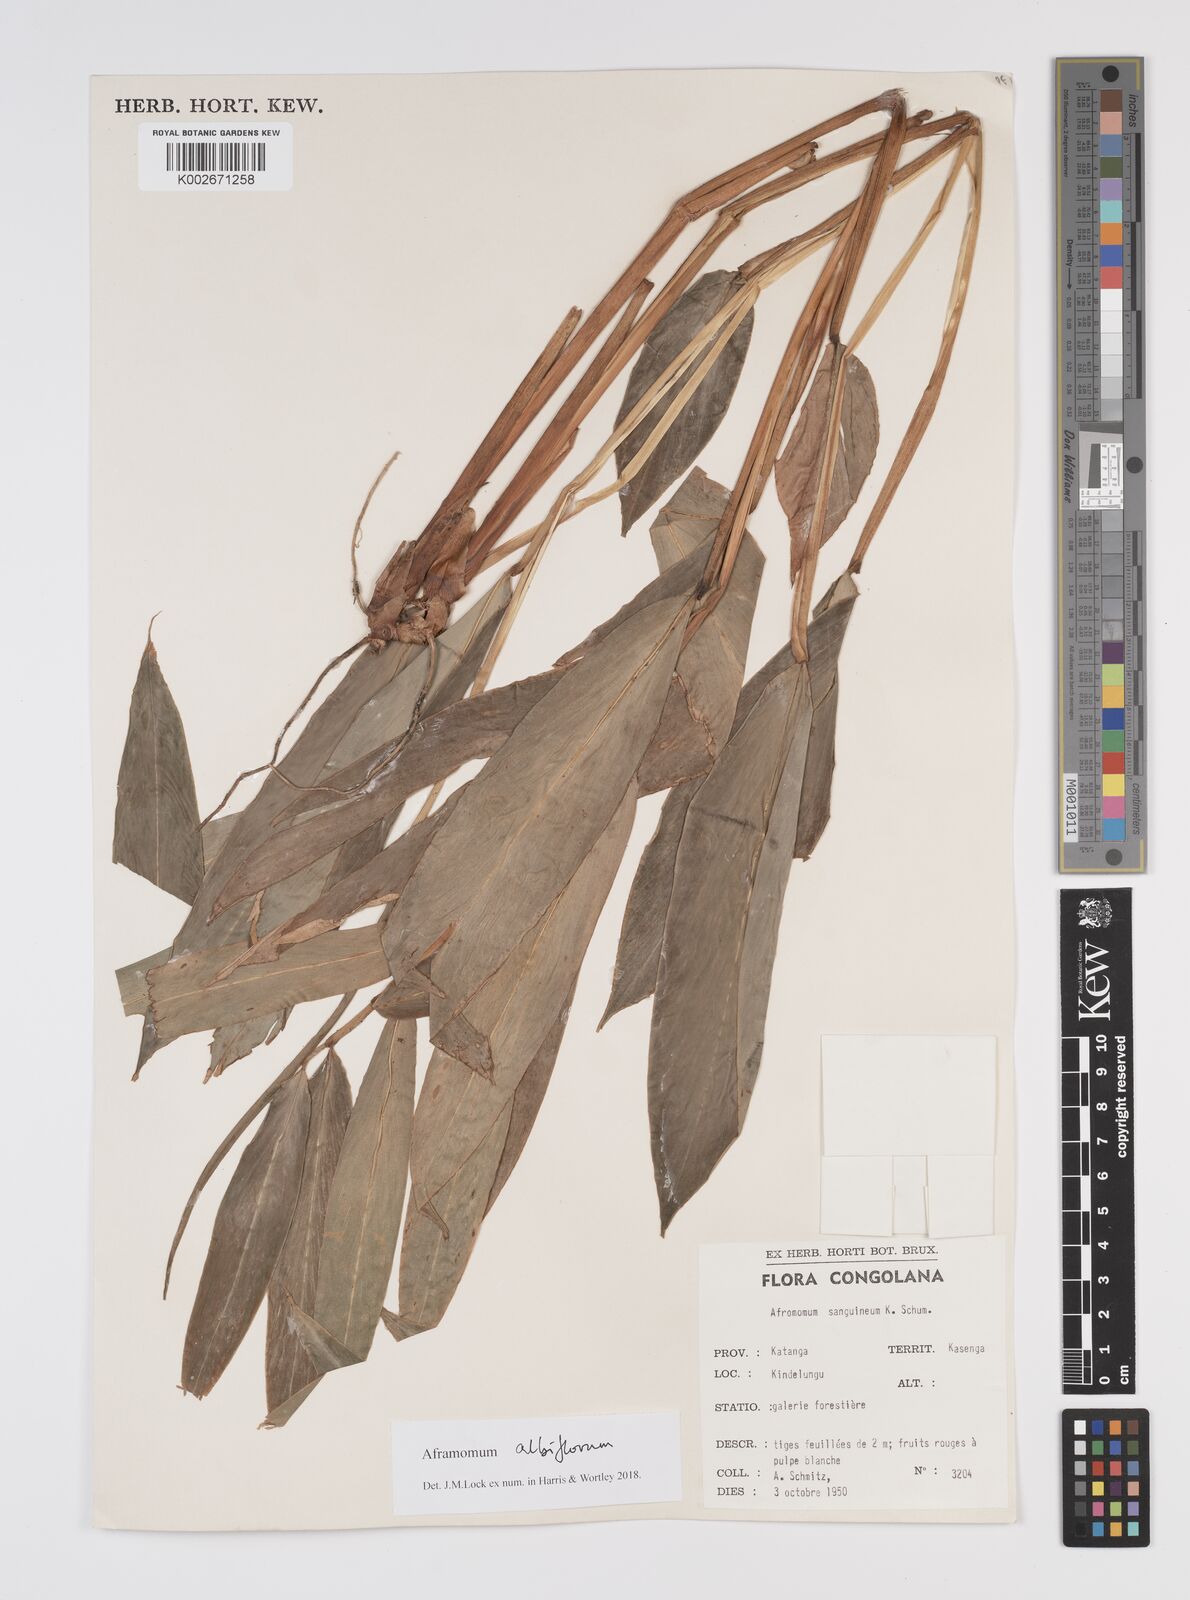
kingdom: Plantae
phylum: Tracheophyta
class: Liliopsida
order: Zingiberales
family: Zingiberaceae
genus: Aframomum
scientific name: Aframomum albiflorum
